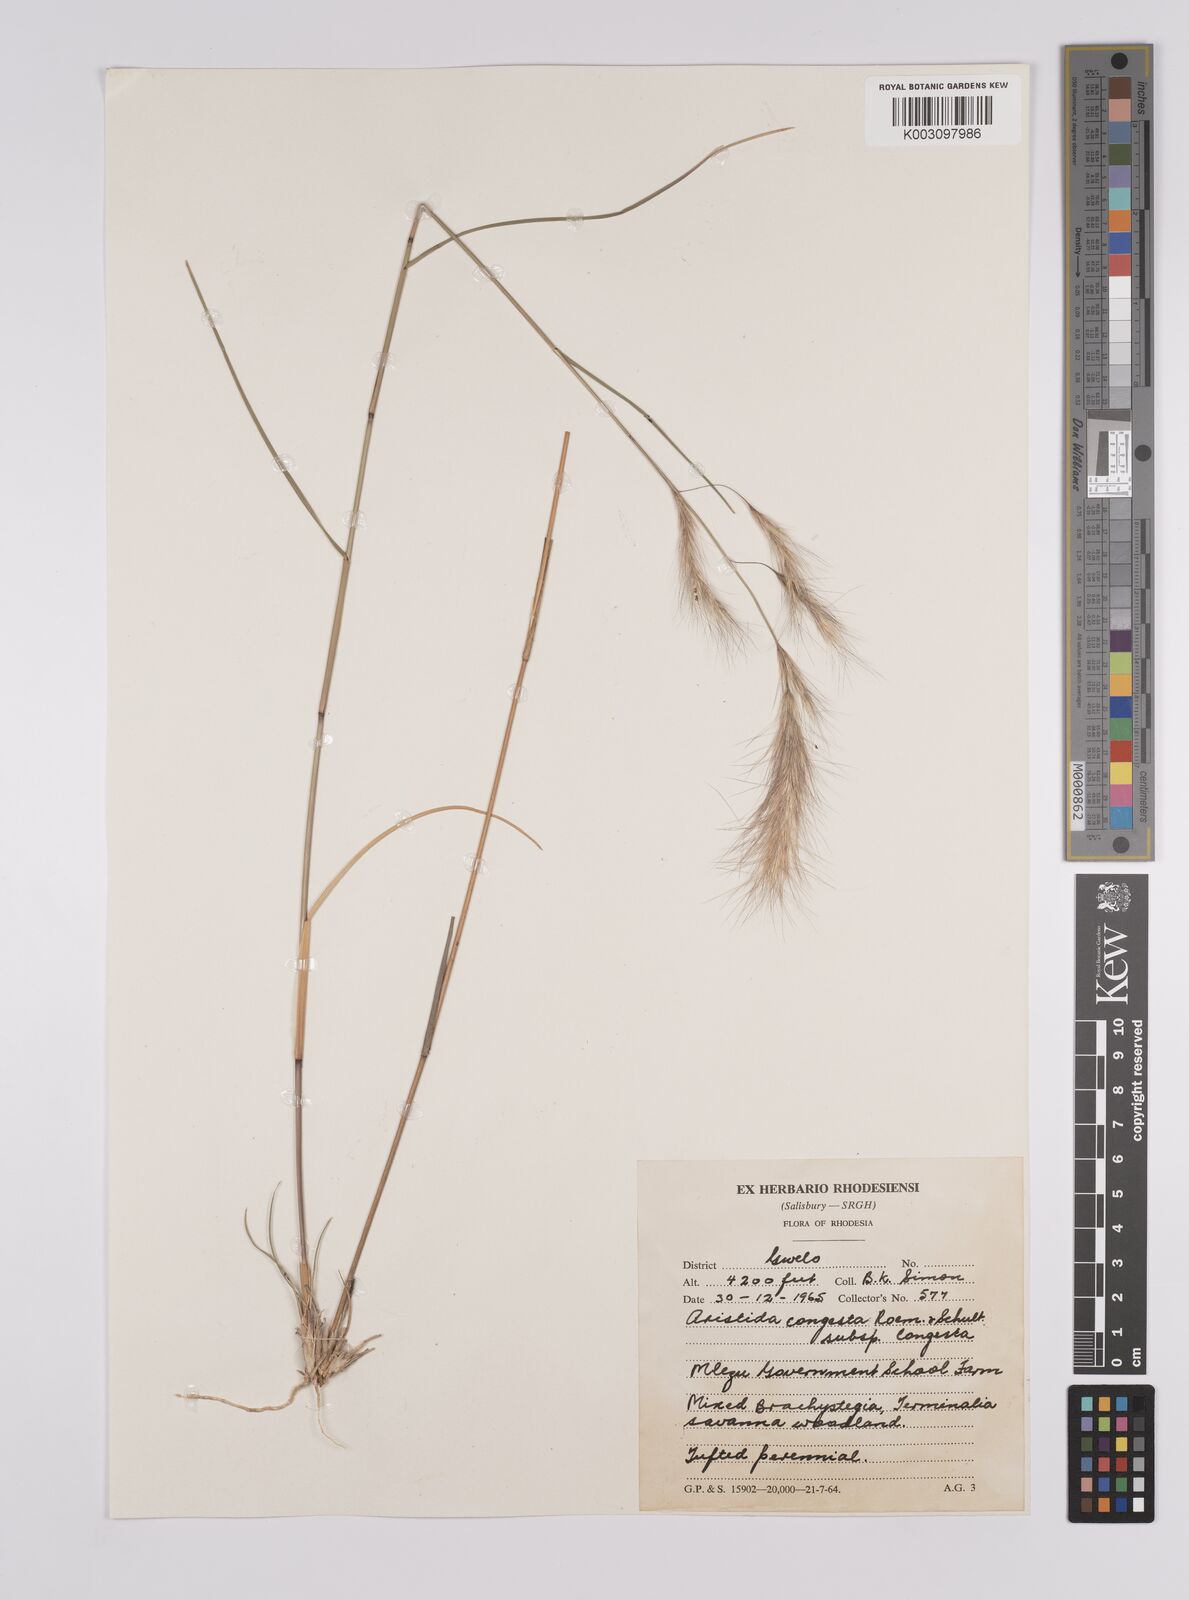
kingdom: Plantae
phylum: Tracheophyta
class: Liliopsida
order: Poales
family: Poaceae
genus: Aristida
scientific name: Aristida congesta
